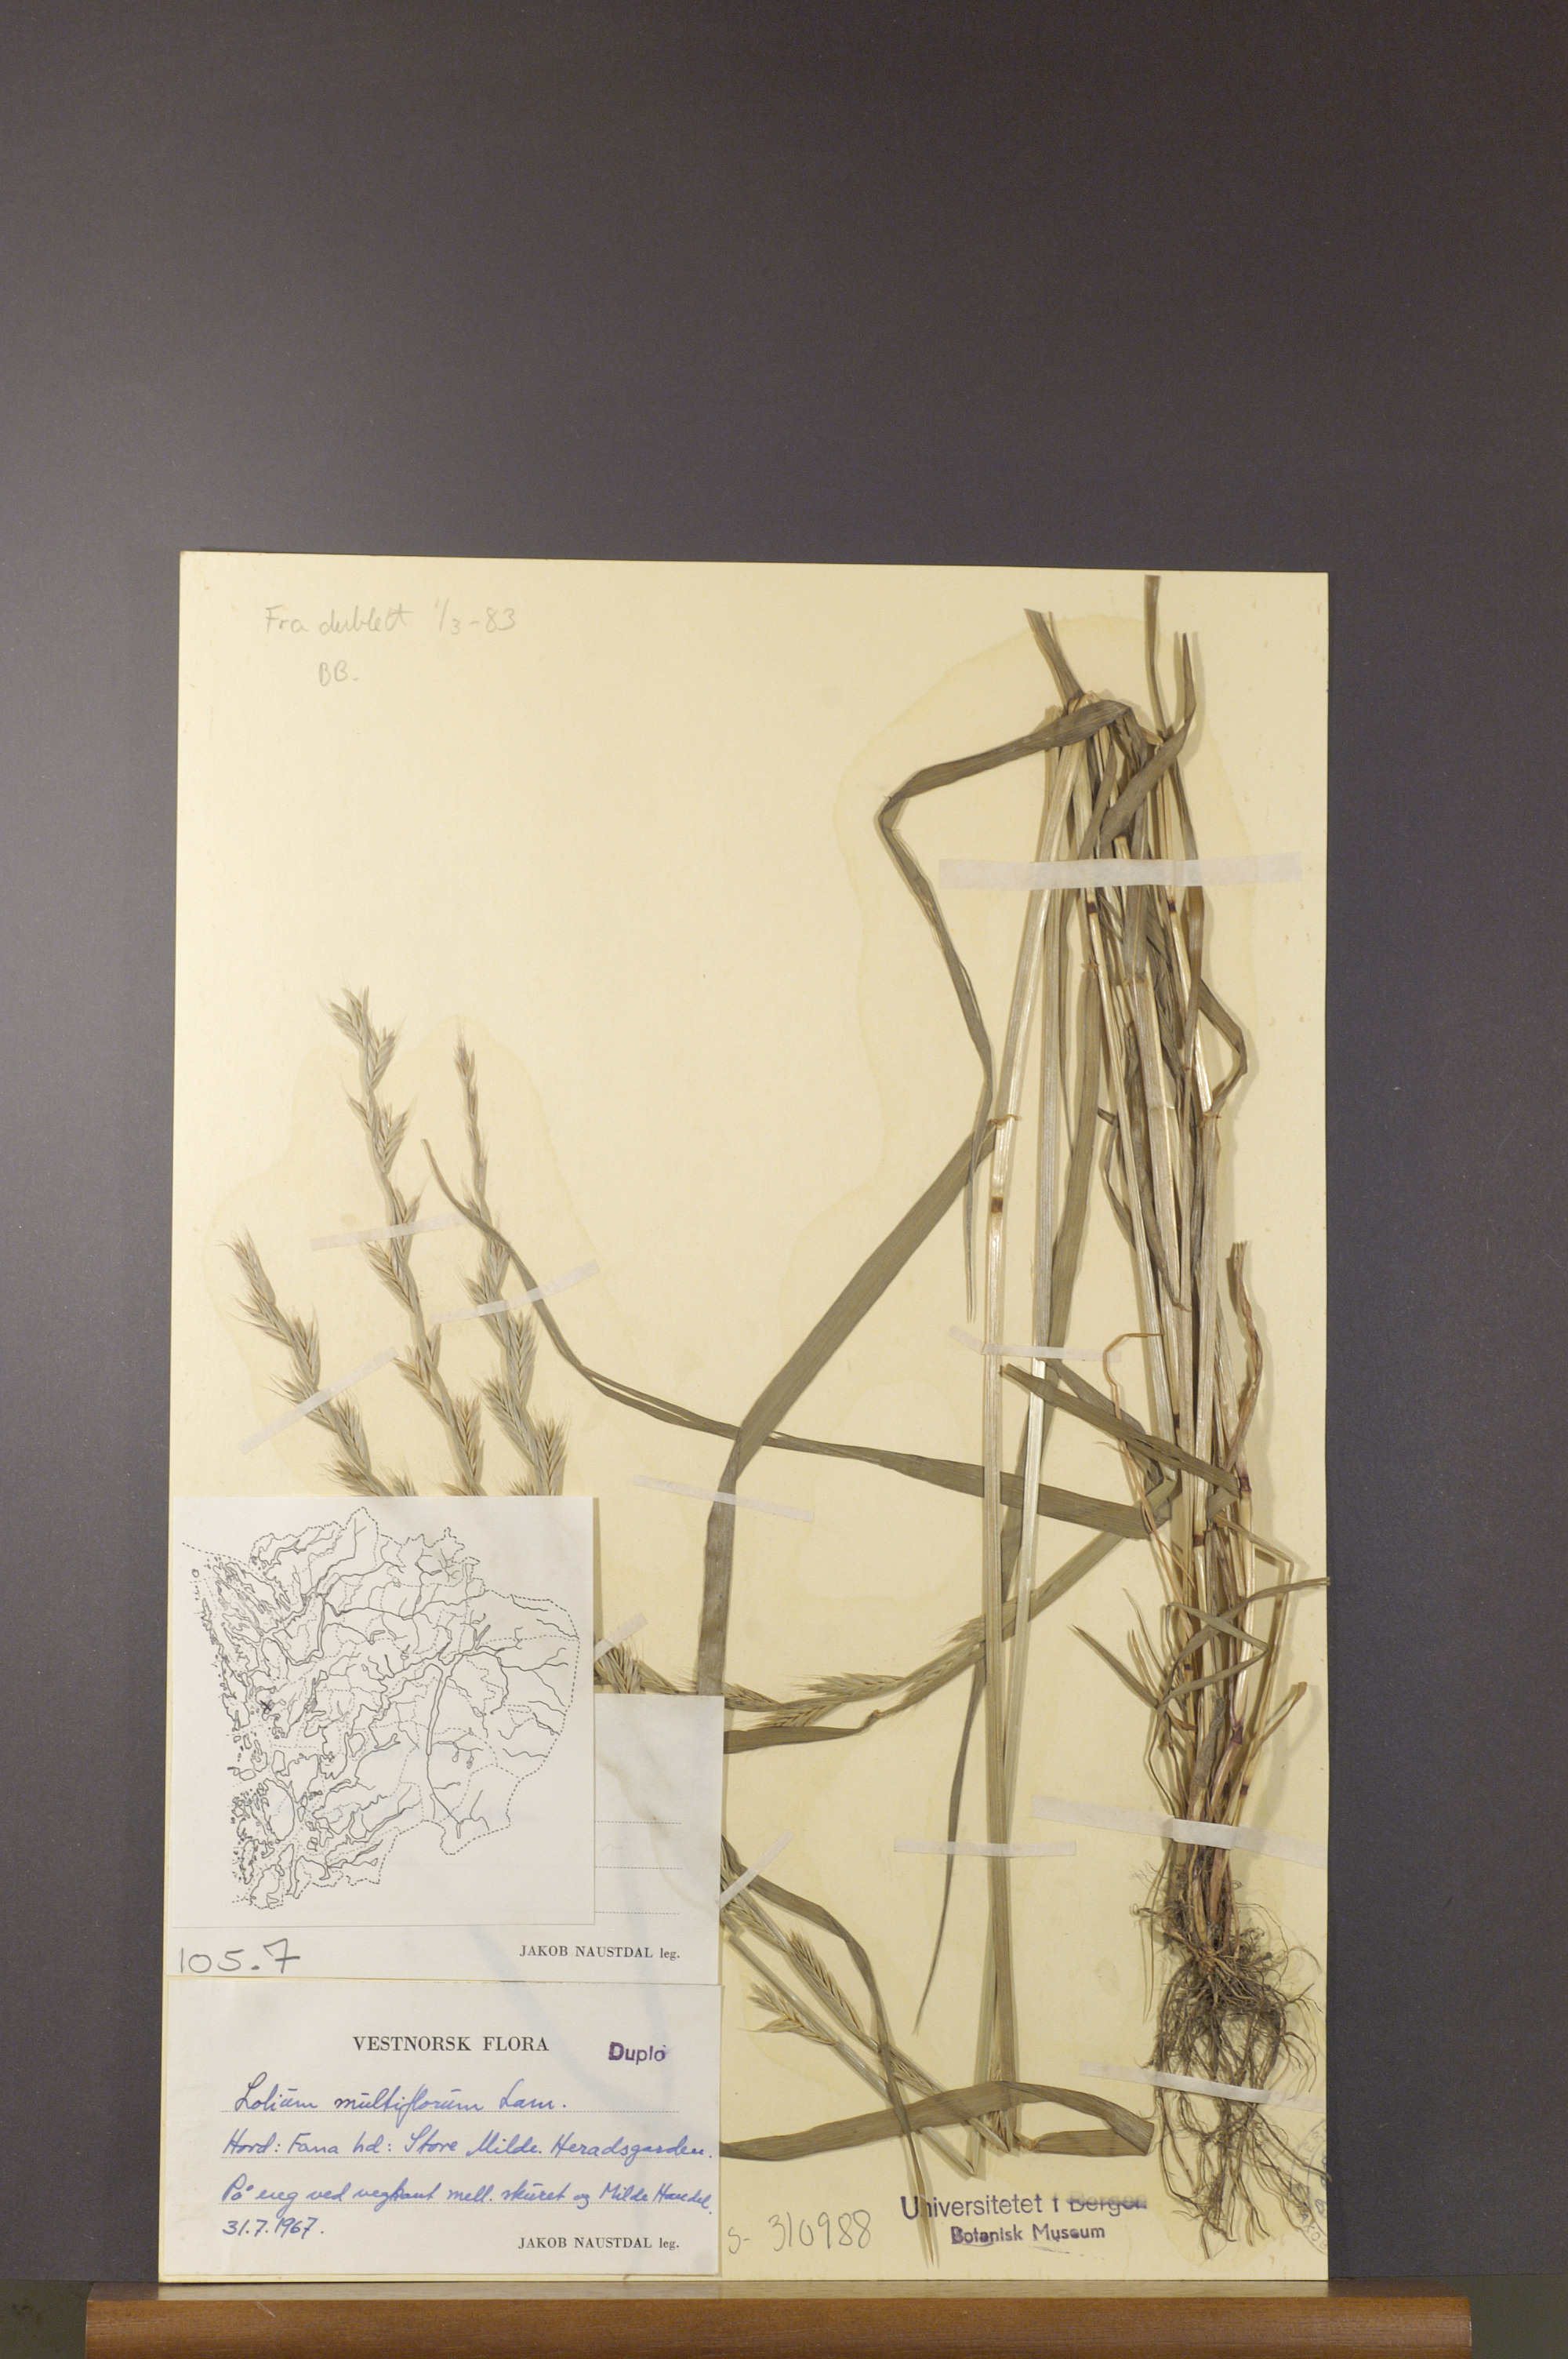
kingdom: Plantae
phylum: Tracheophyta
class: Liliopsida
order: Poales
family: Poaceae
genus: Lolium
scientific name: Lolium multiflorum
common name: Annual ryegrass
